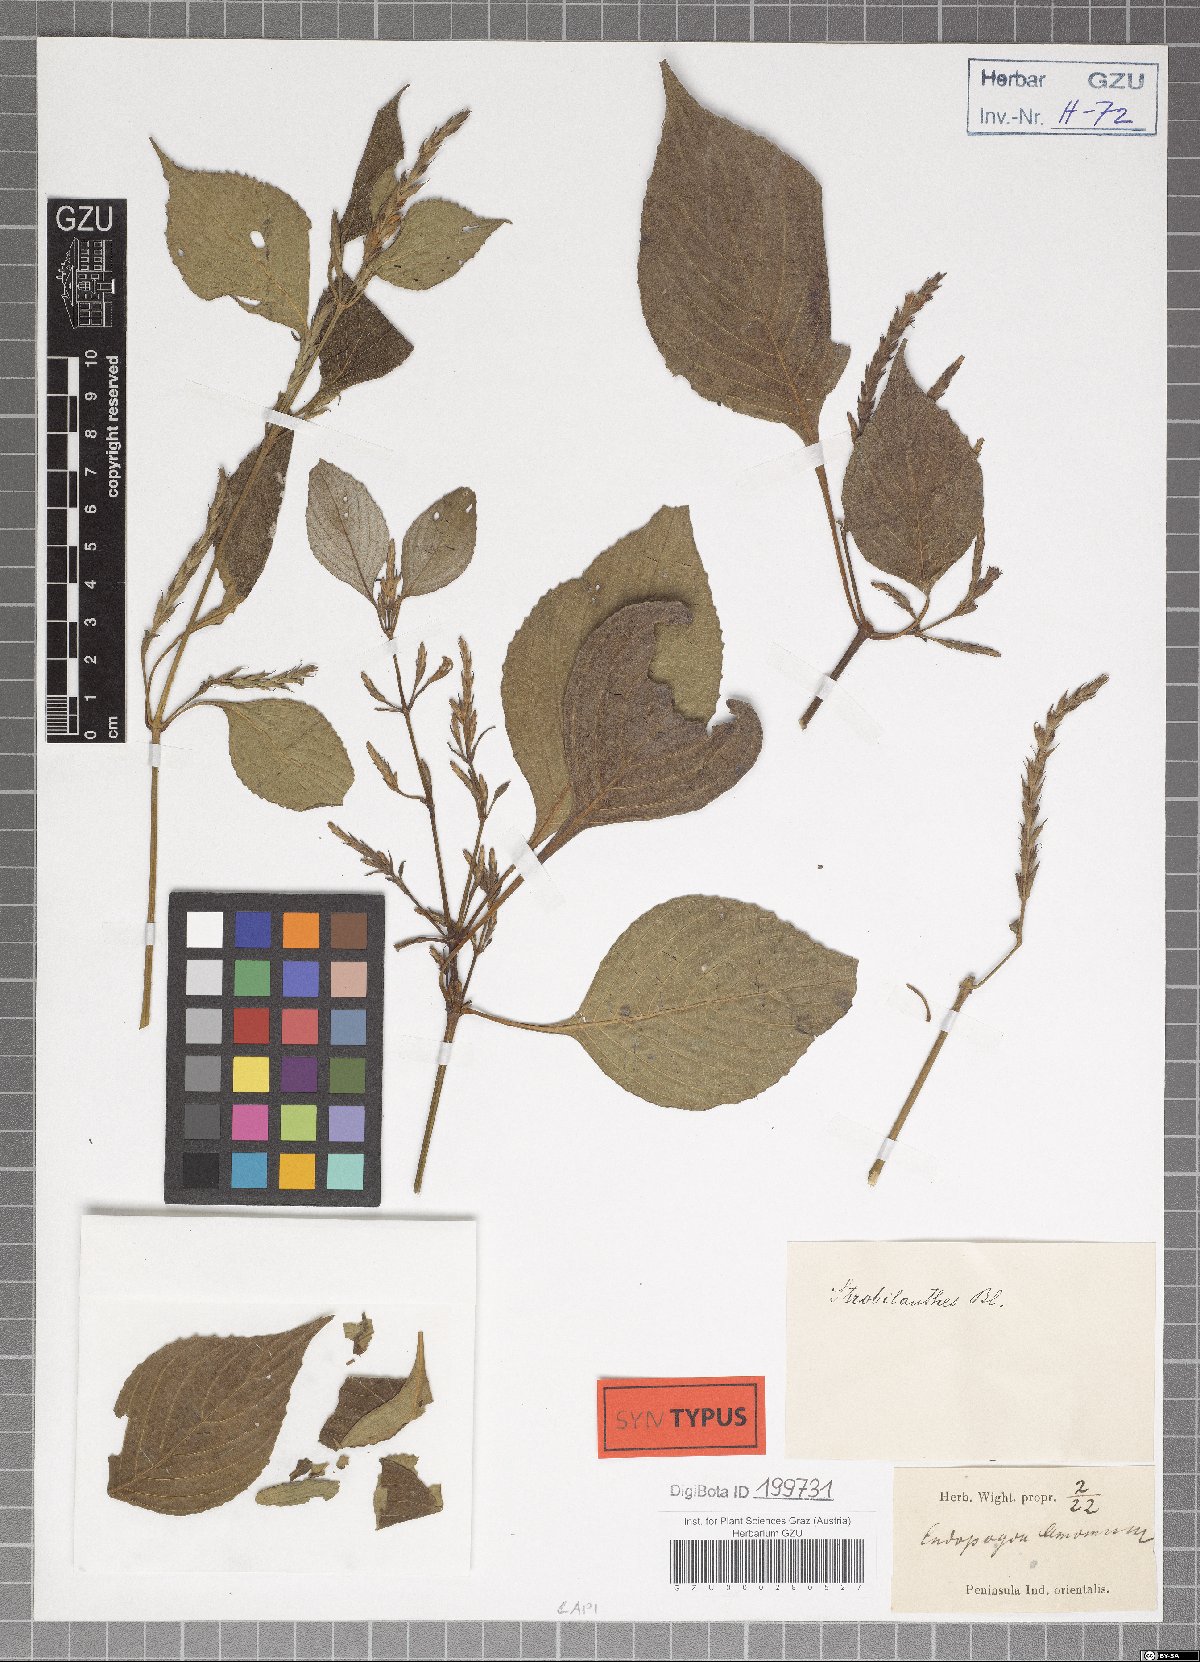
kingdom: Plantae
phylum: Tracheophyta
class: Magnoliopsida
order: Lamiales
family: Acanthaceae
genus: Strobilanthes
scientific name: Strobilanthes consanguinea
